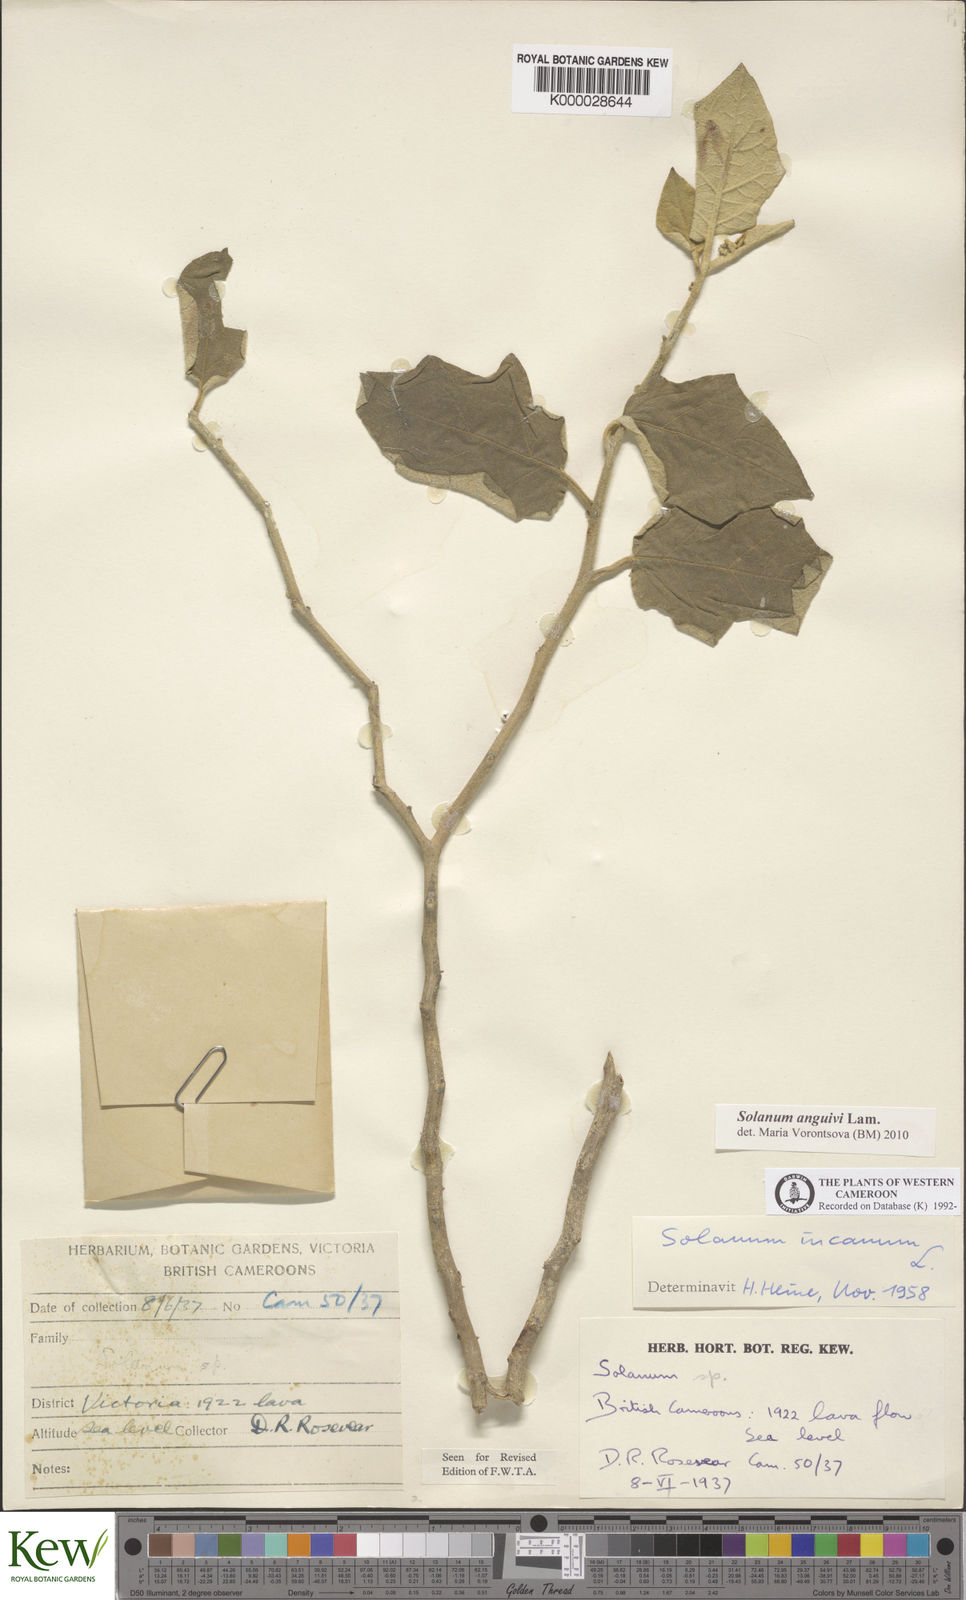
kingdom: Plantae
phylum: Tracheophyta
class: Magnoliopsida
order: Solanales
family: Solanaceae
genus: Solanum
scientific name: Solanum incanum
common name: Bitter apple
